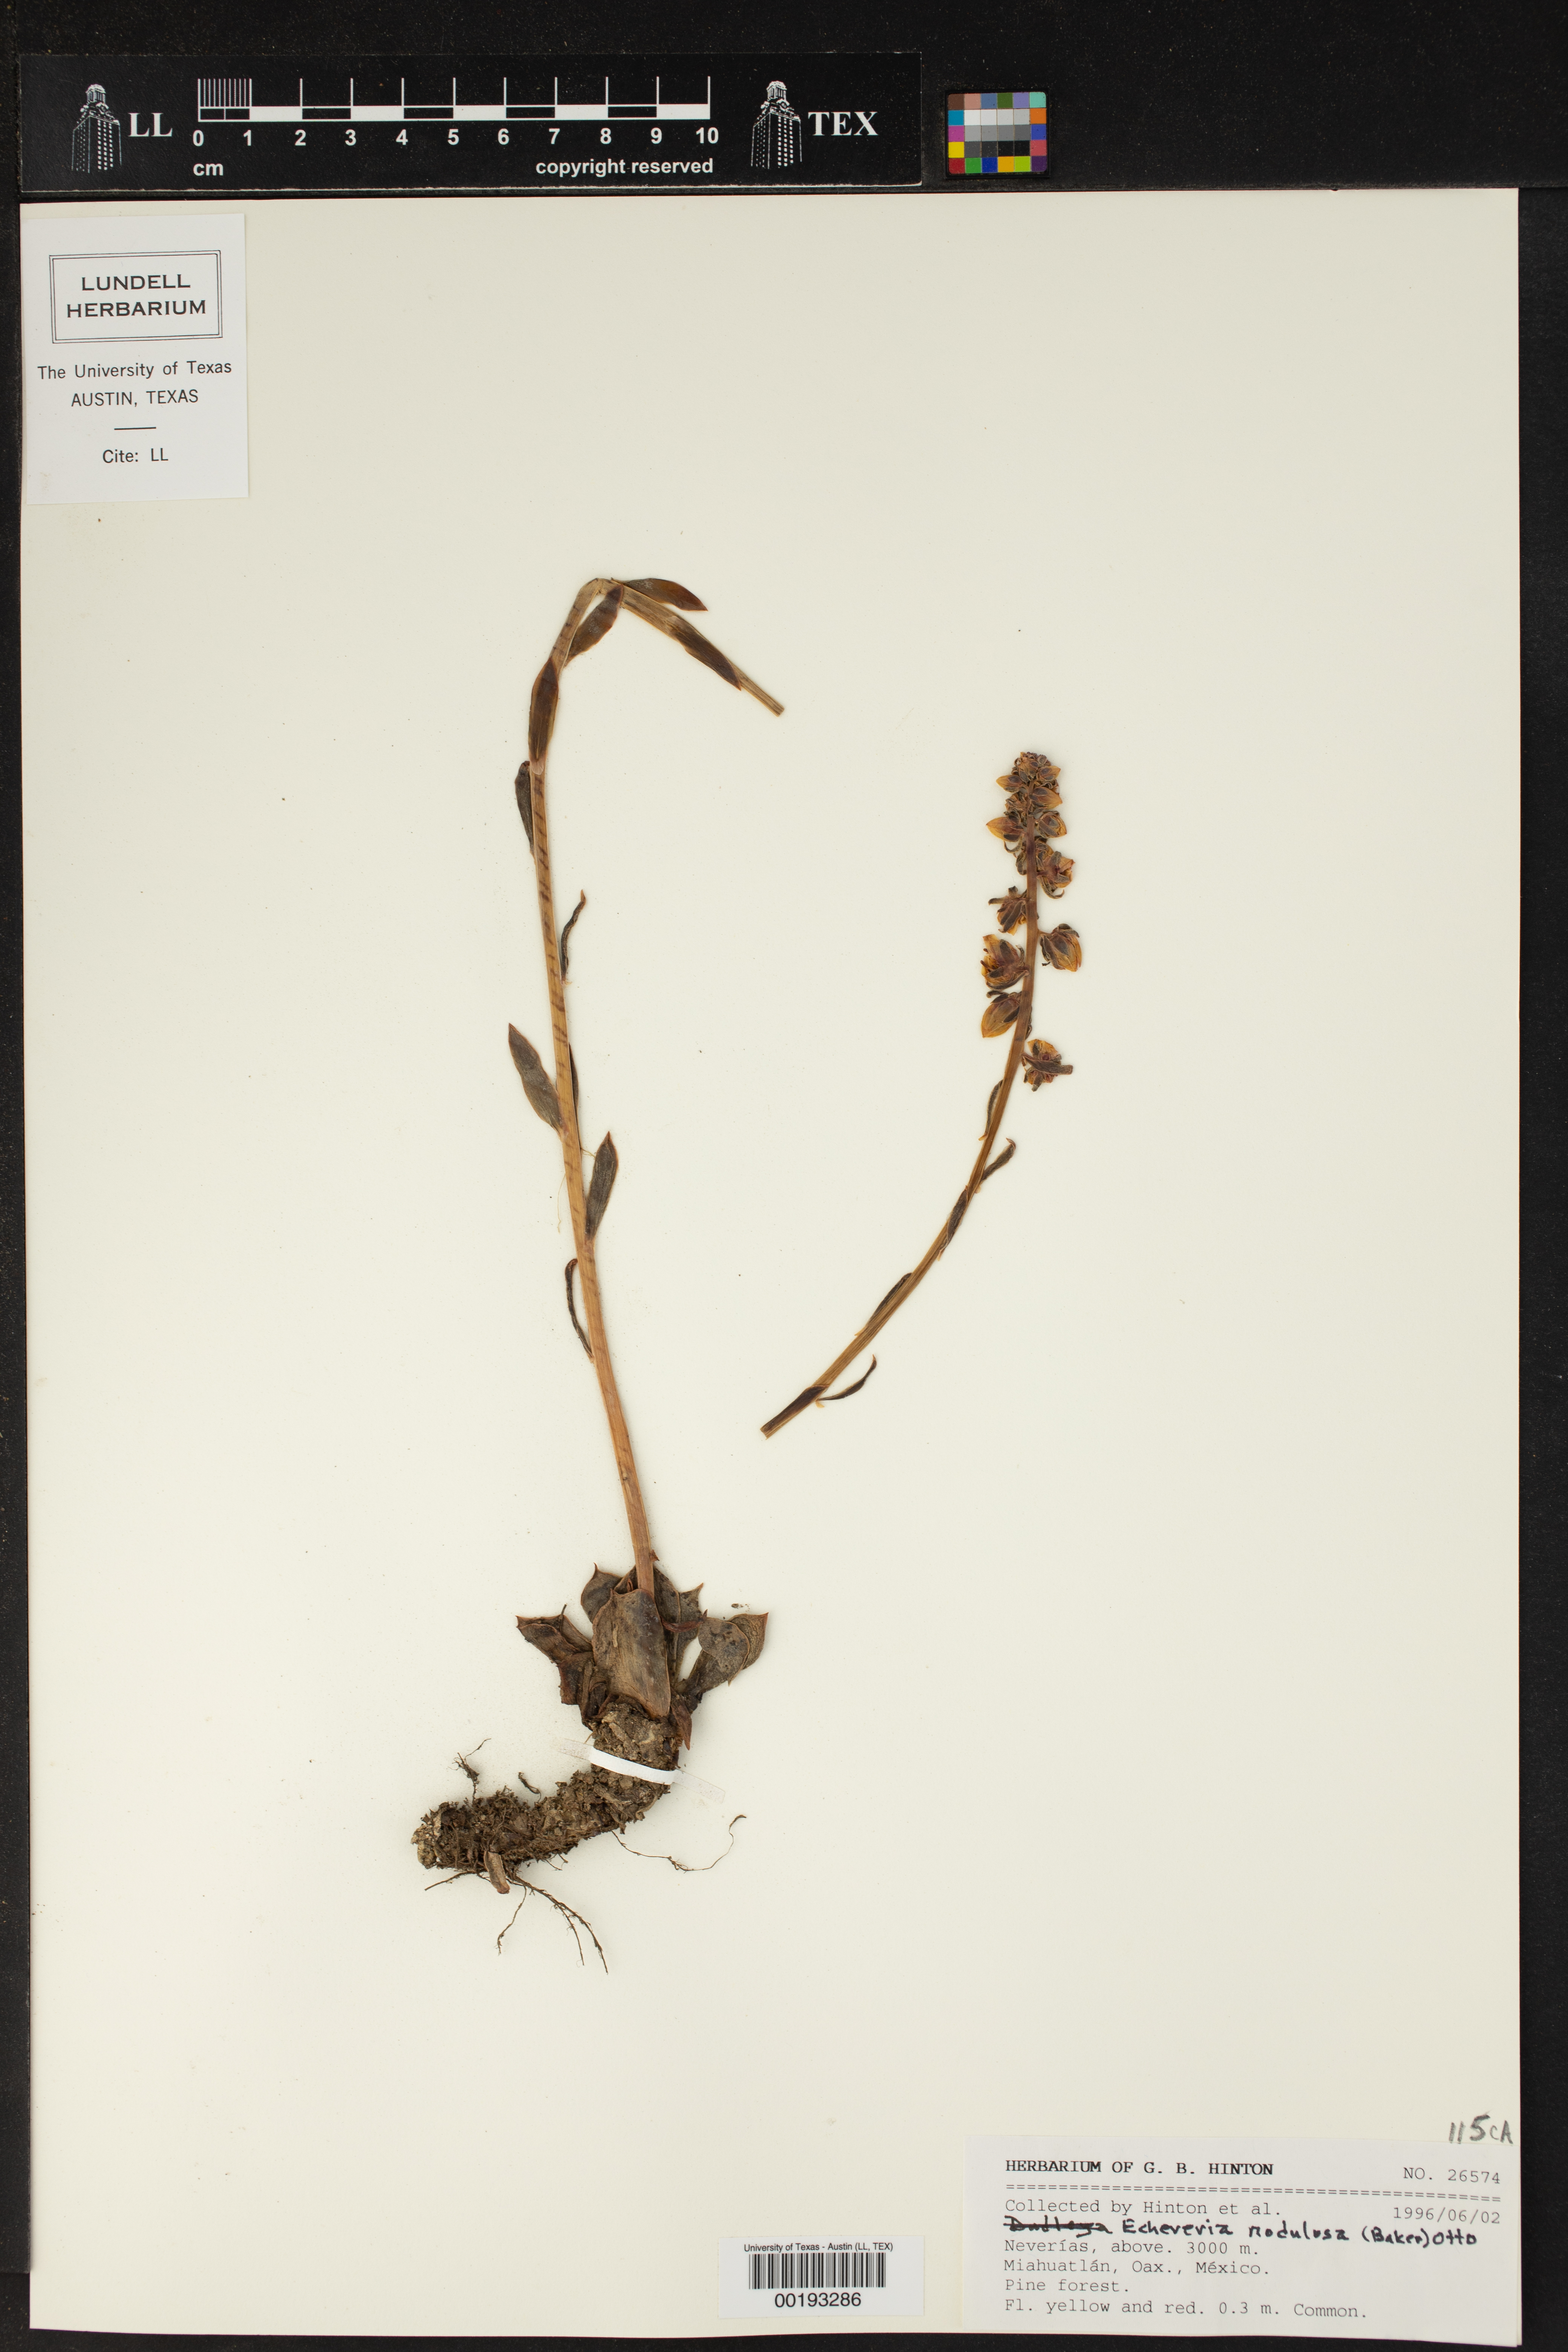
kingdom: Plantae
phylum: Tracheophyta
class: Magnoliopsida
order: Saxifragales
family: Crassulaceae
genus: Echeveria
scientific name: Echeveria nodulosa
